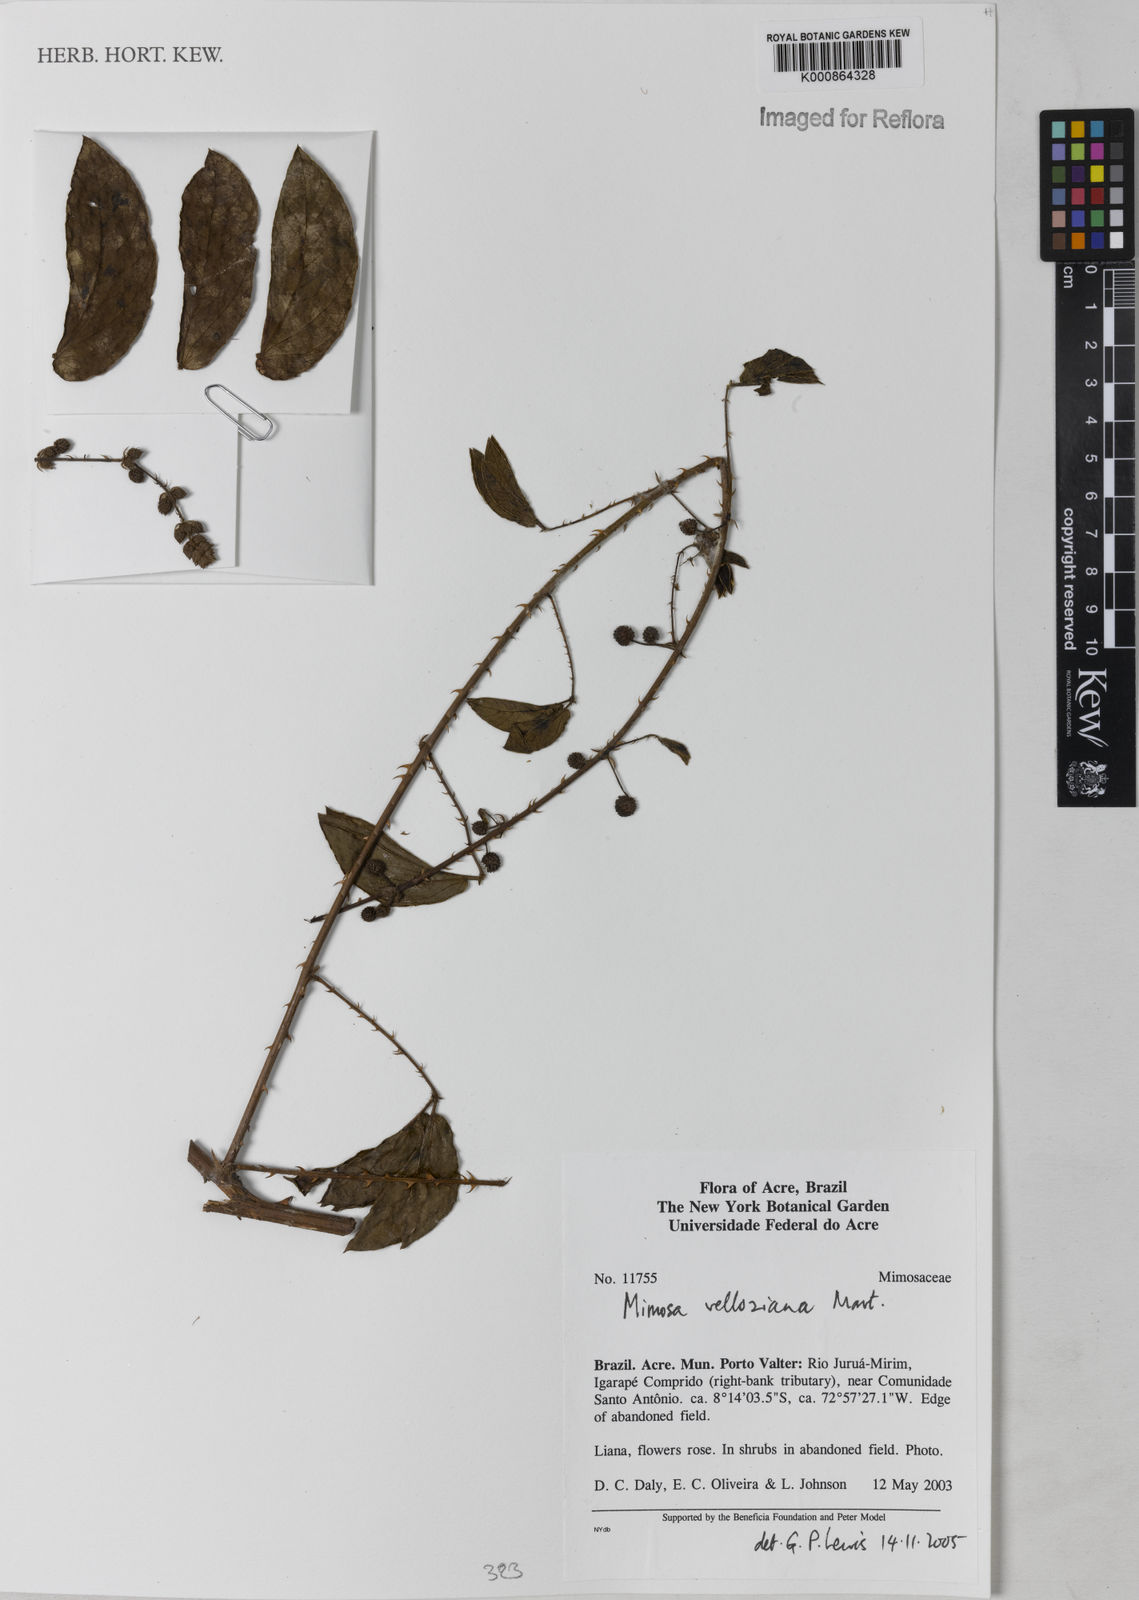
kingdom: Plantae
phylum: Tracheophyta
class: Magnoliopsida
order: Fabales
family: Fabaceae
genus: Mimosa
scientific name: Mimosa velloziana
